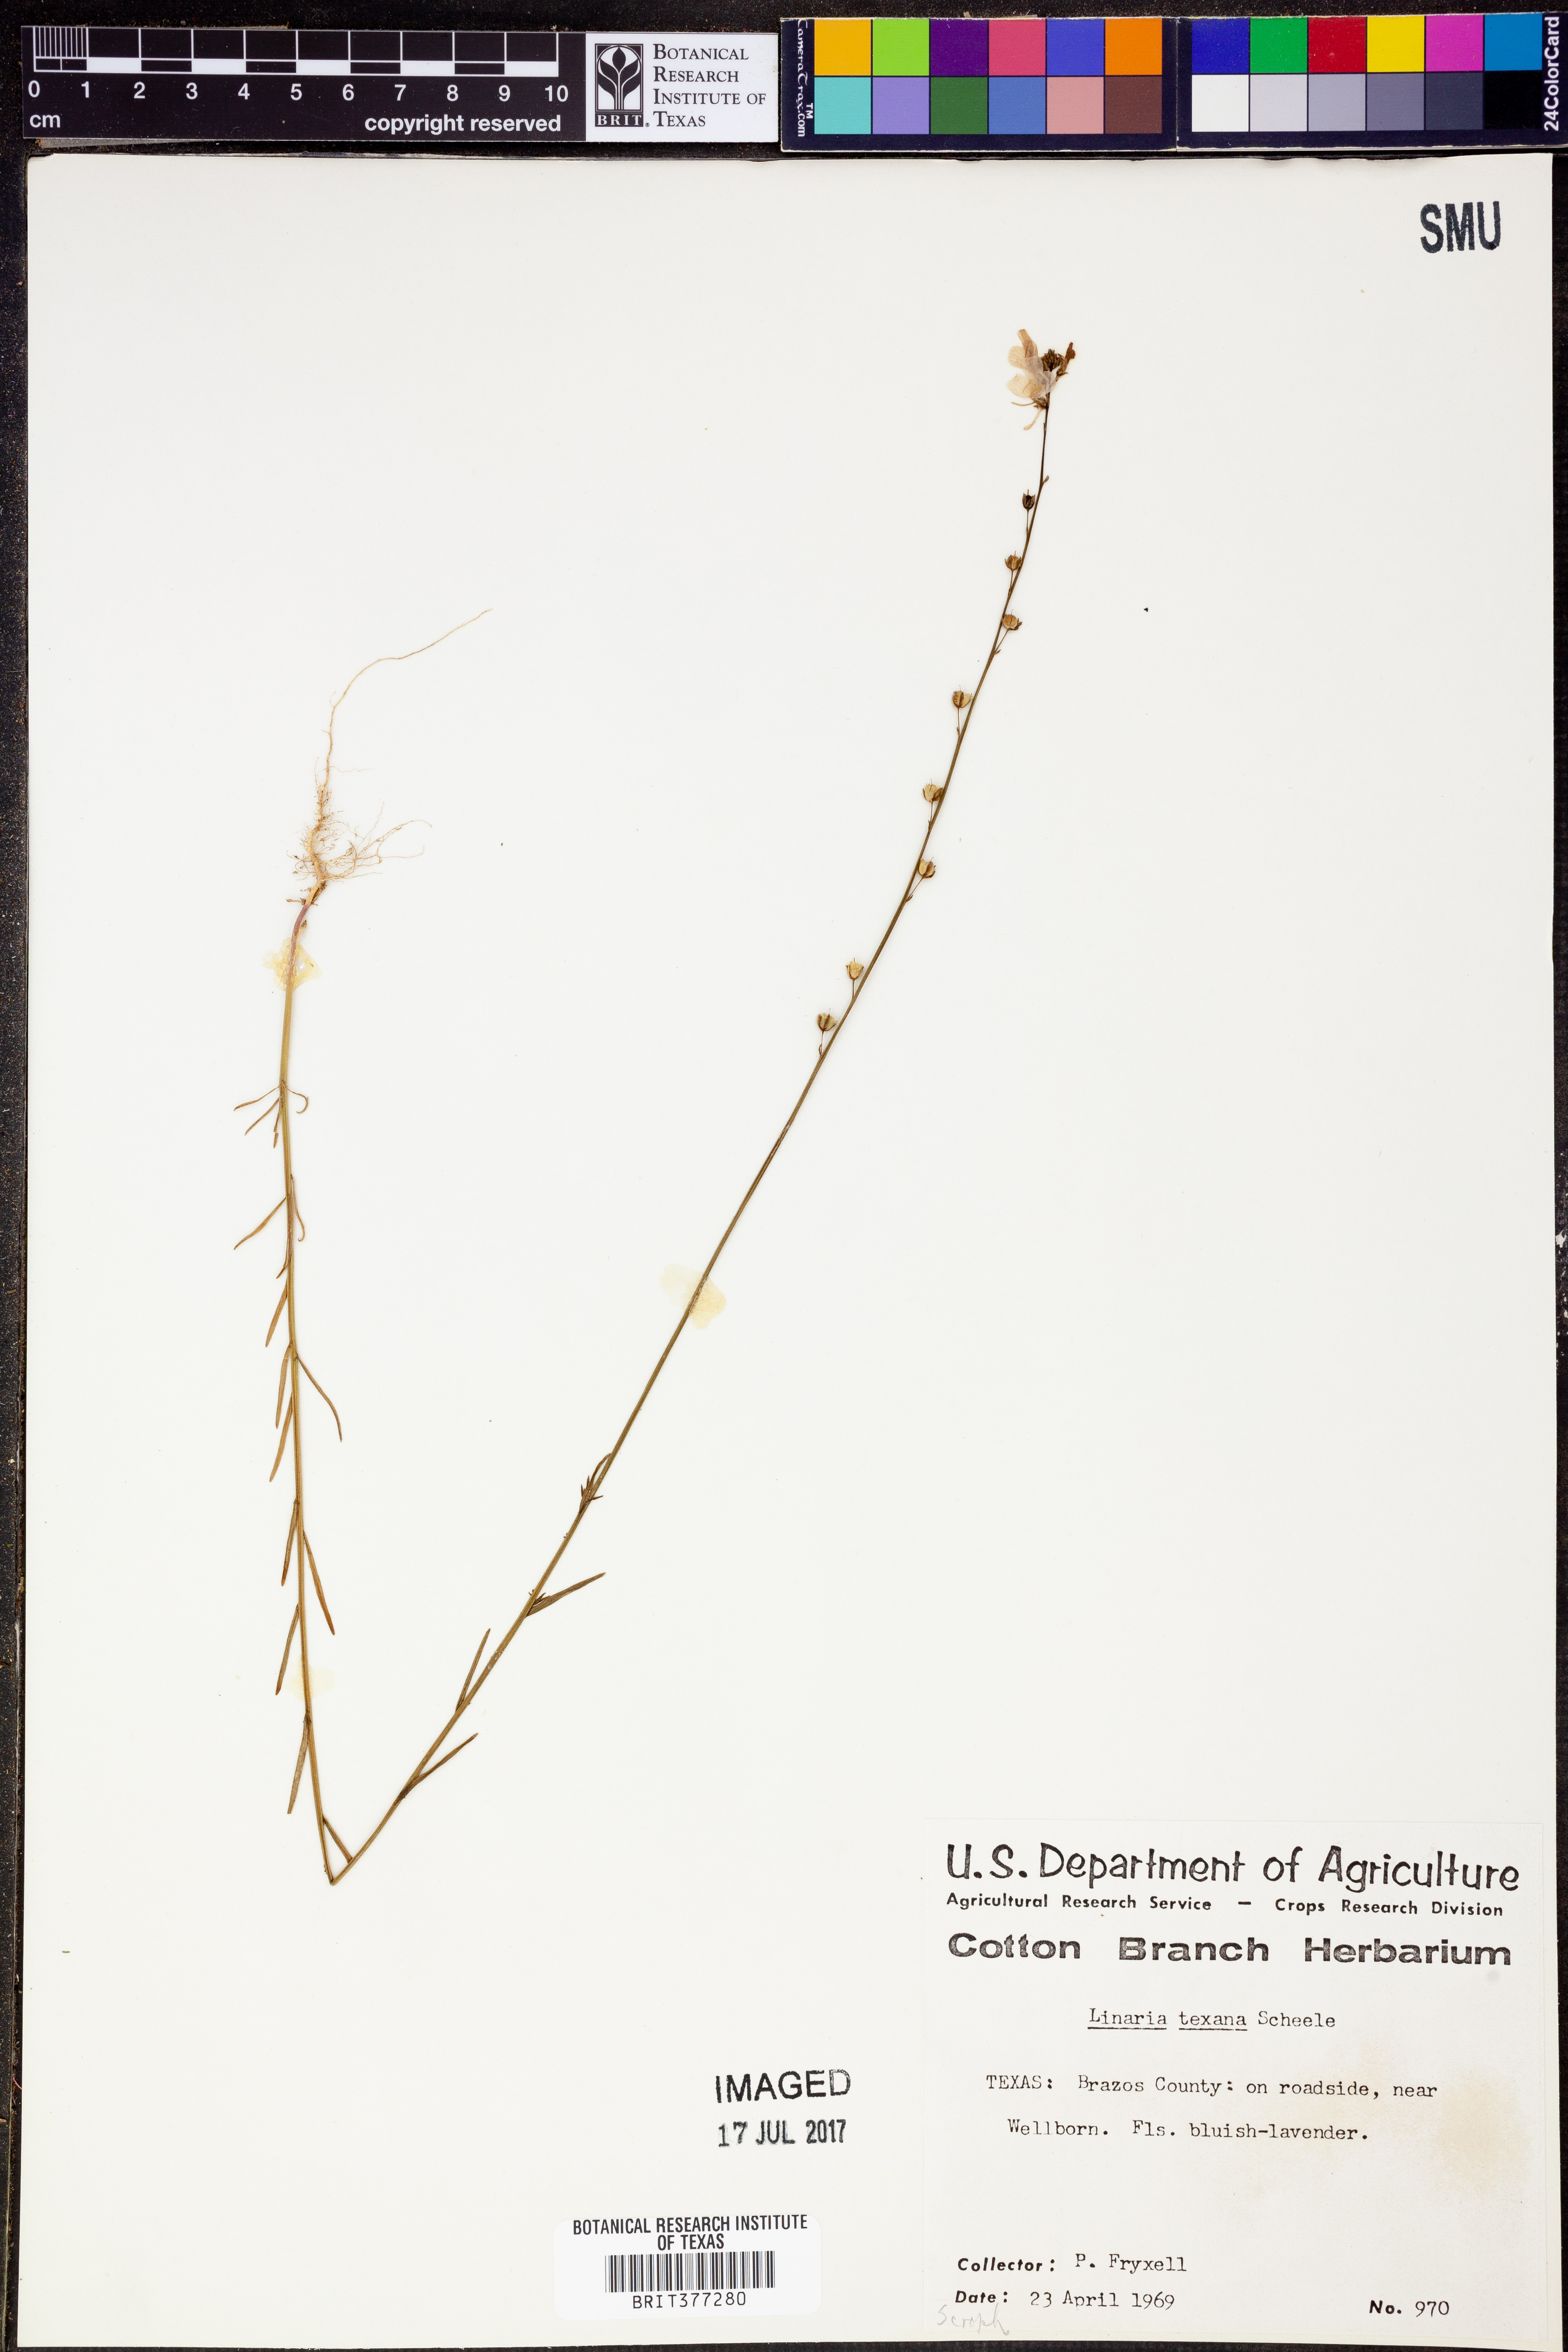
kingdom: Plantae
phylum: Tracheophyta
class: Magnoliopsida
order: Lamiales
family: Plantaginaceae
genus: Nuttallanthus
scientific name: Nuttallanthus texanus
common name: Texas toadflax
